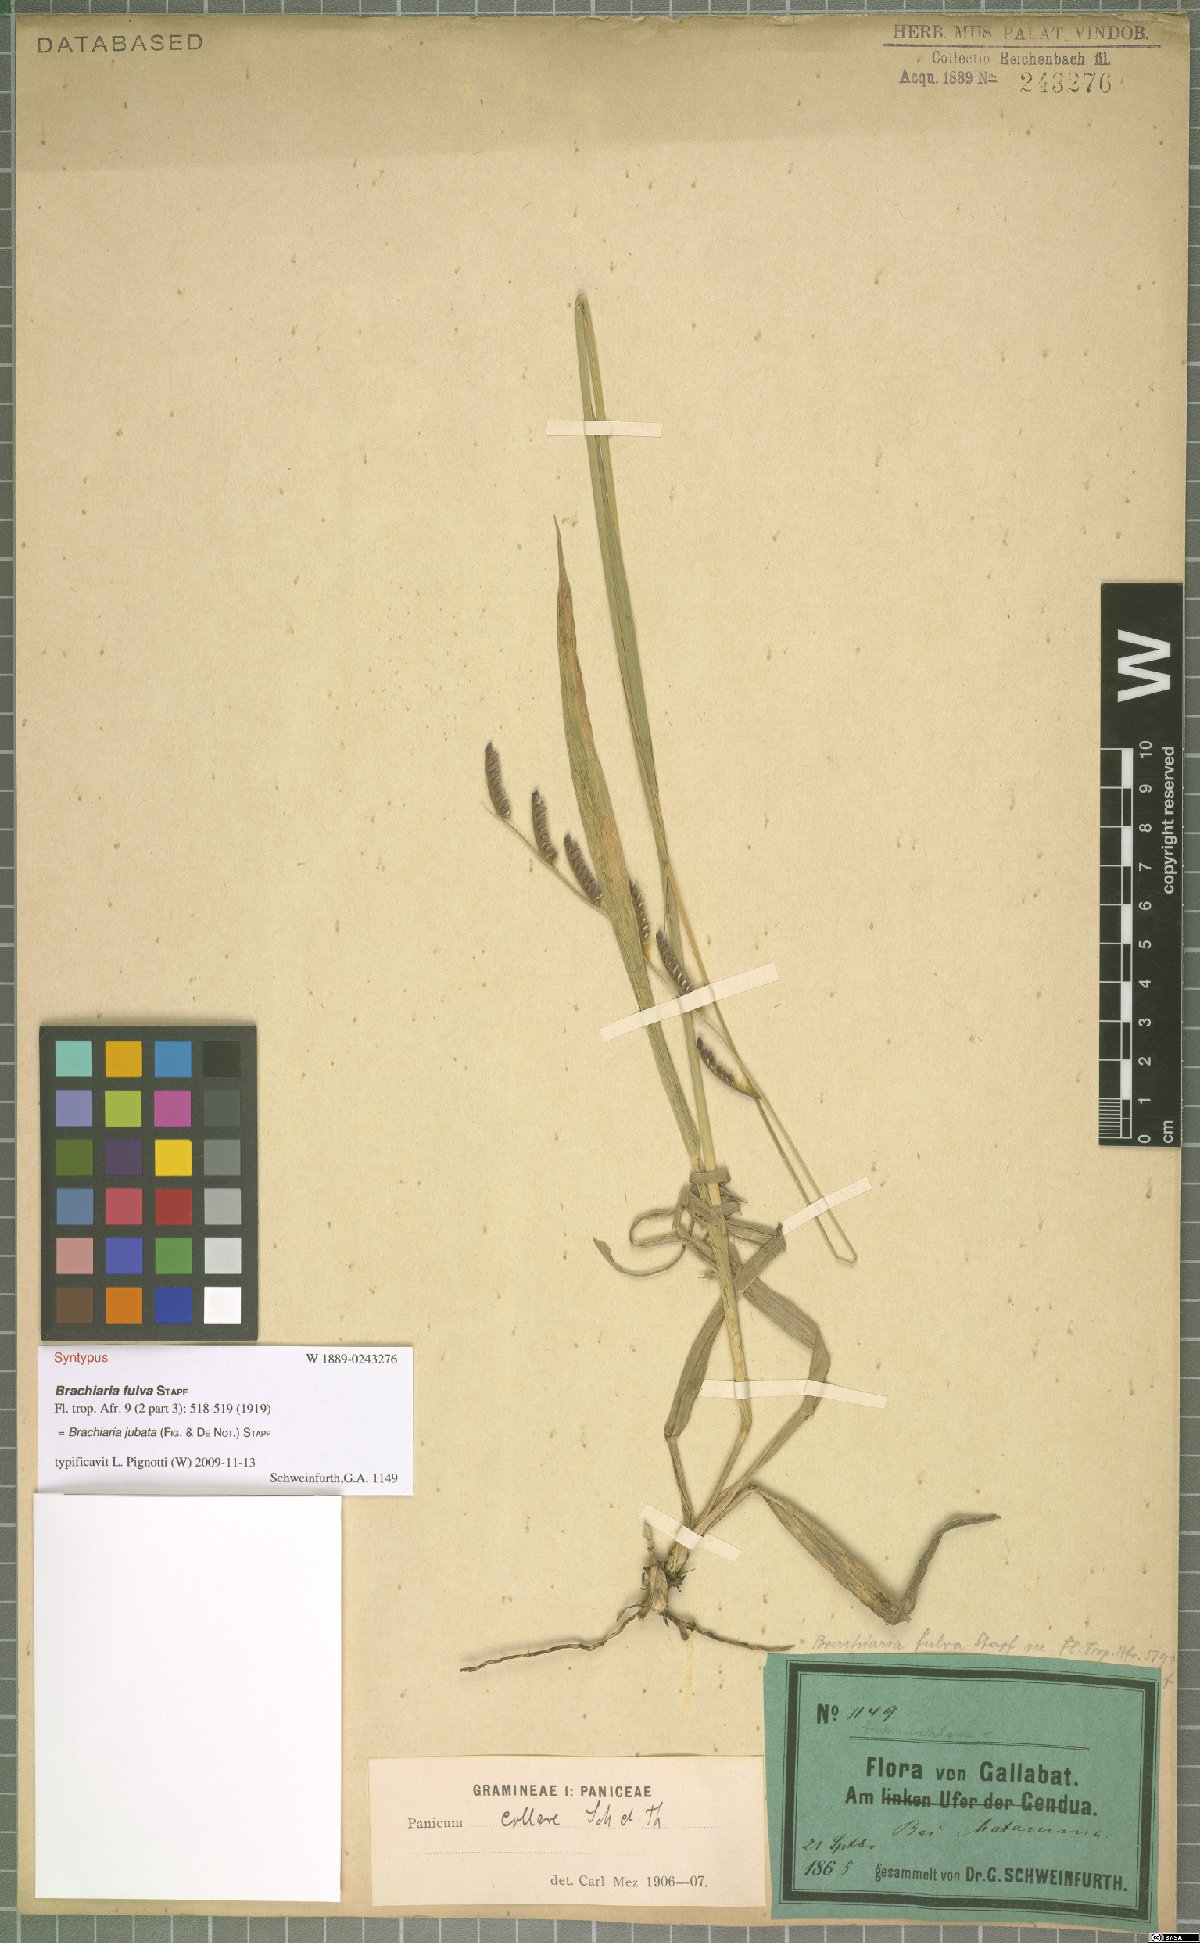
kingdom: Plantae
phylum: Tracheophyta
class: Liliopsida
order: Poales
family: Poaceae
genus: Urochloa
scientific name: Urochloa jubata
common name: Buffalograss
